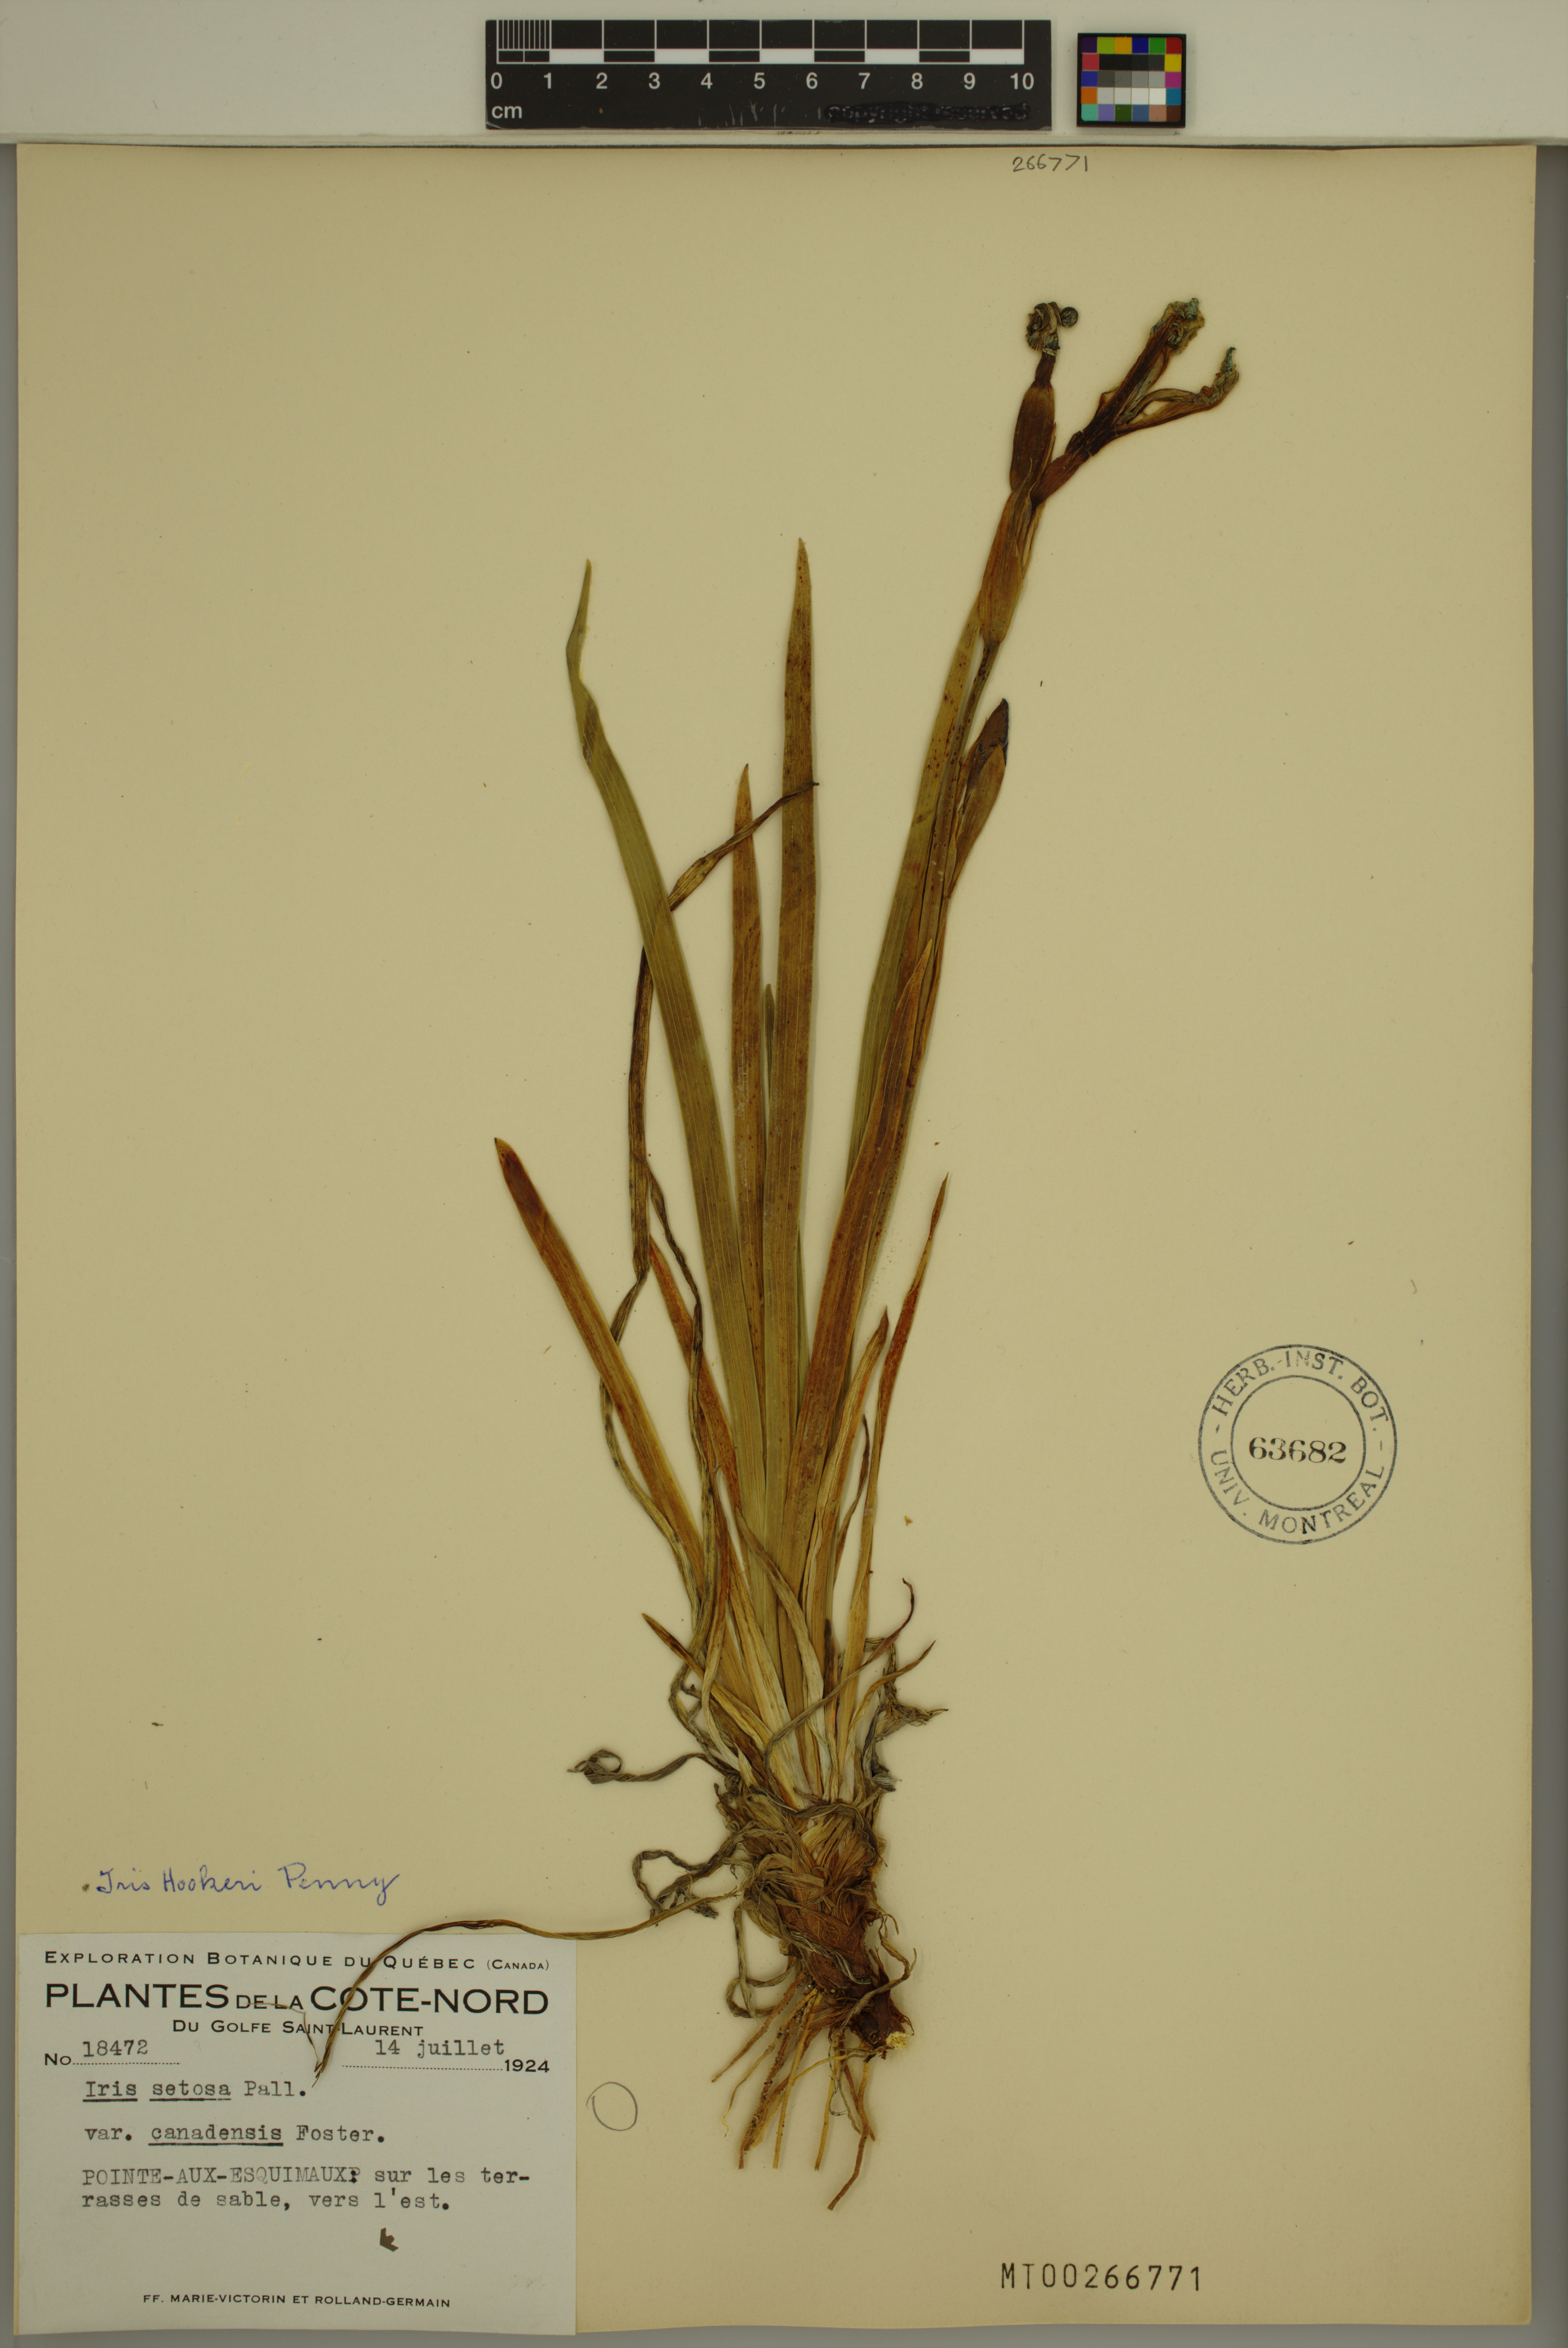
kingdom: Plantae
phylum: Tracheophyta
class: Liliopsida
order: Asparagales
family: Iridaceae
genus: Iris
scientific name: Iris hookeri
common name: Canada beach-head iris
